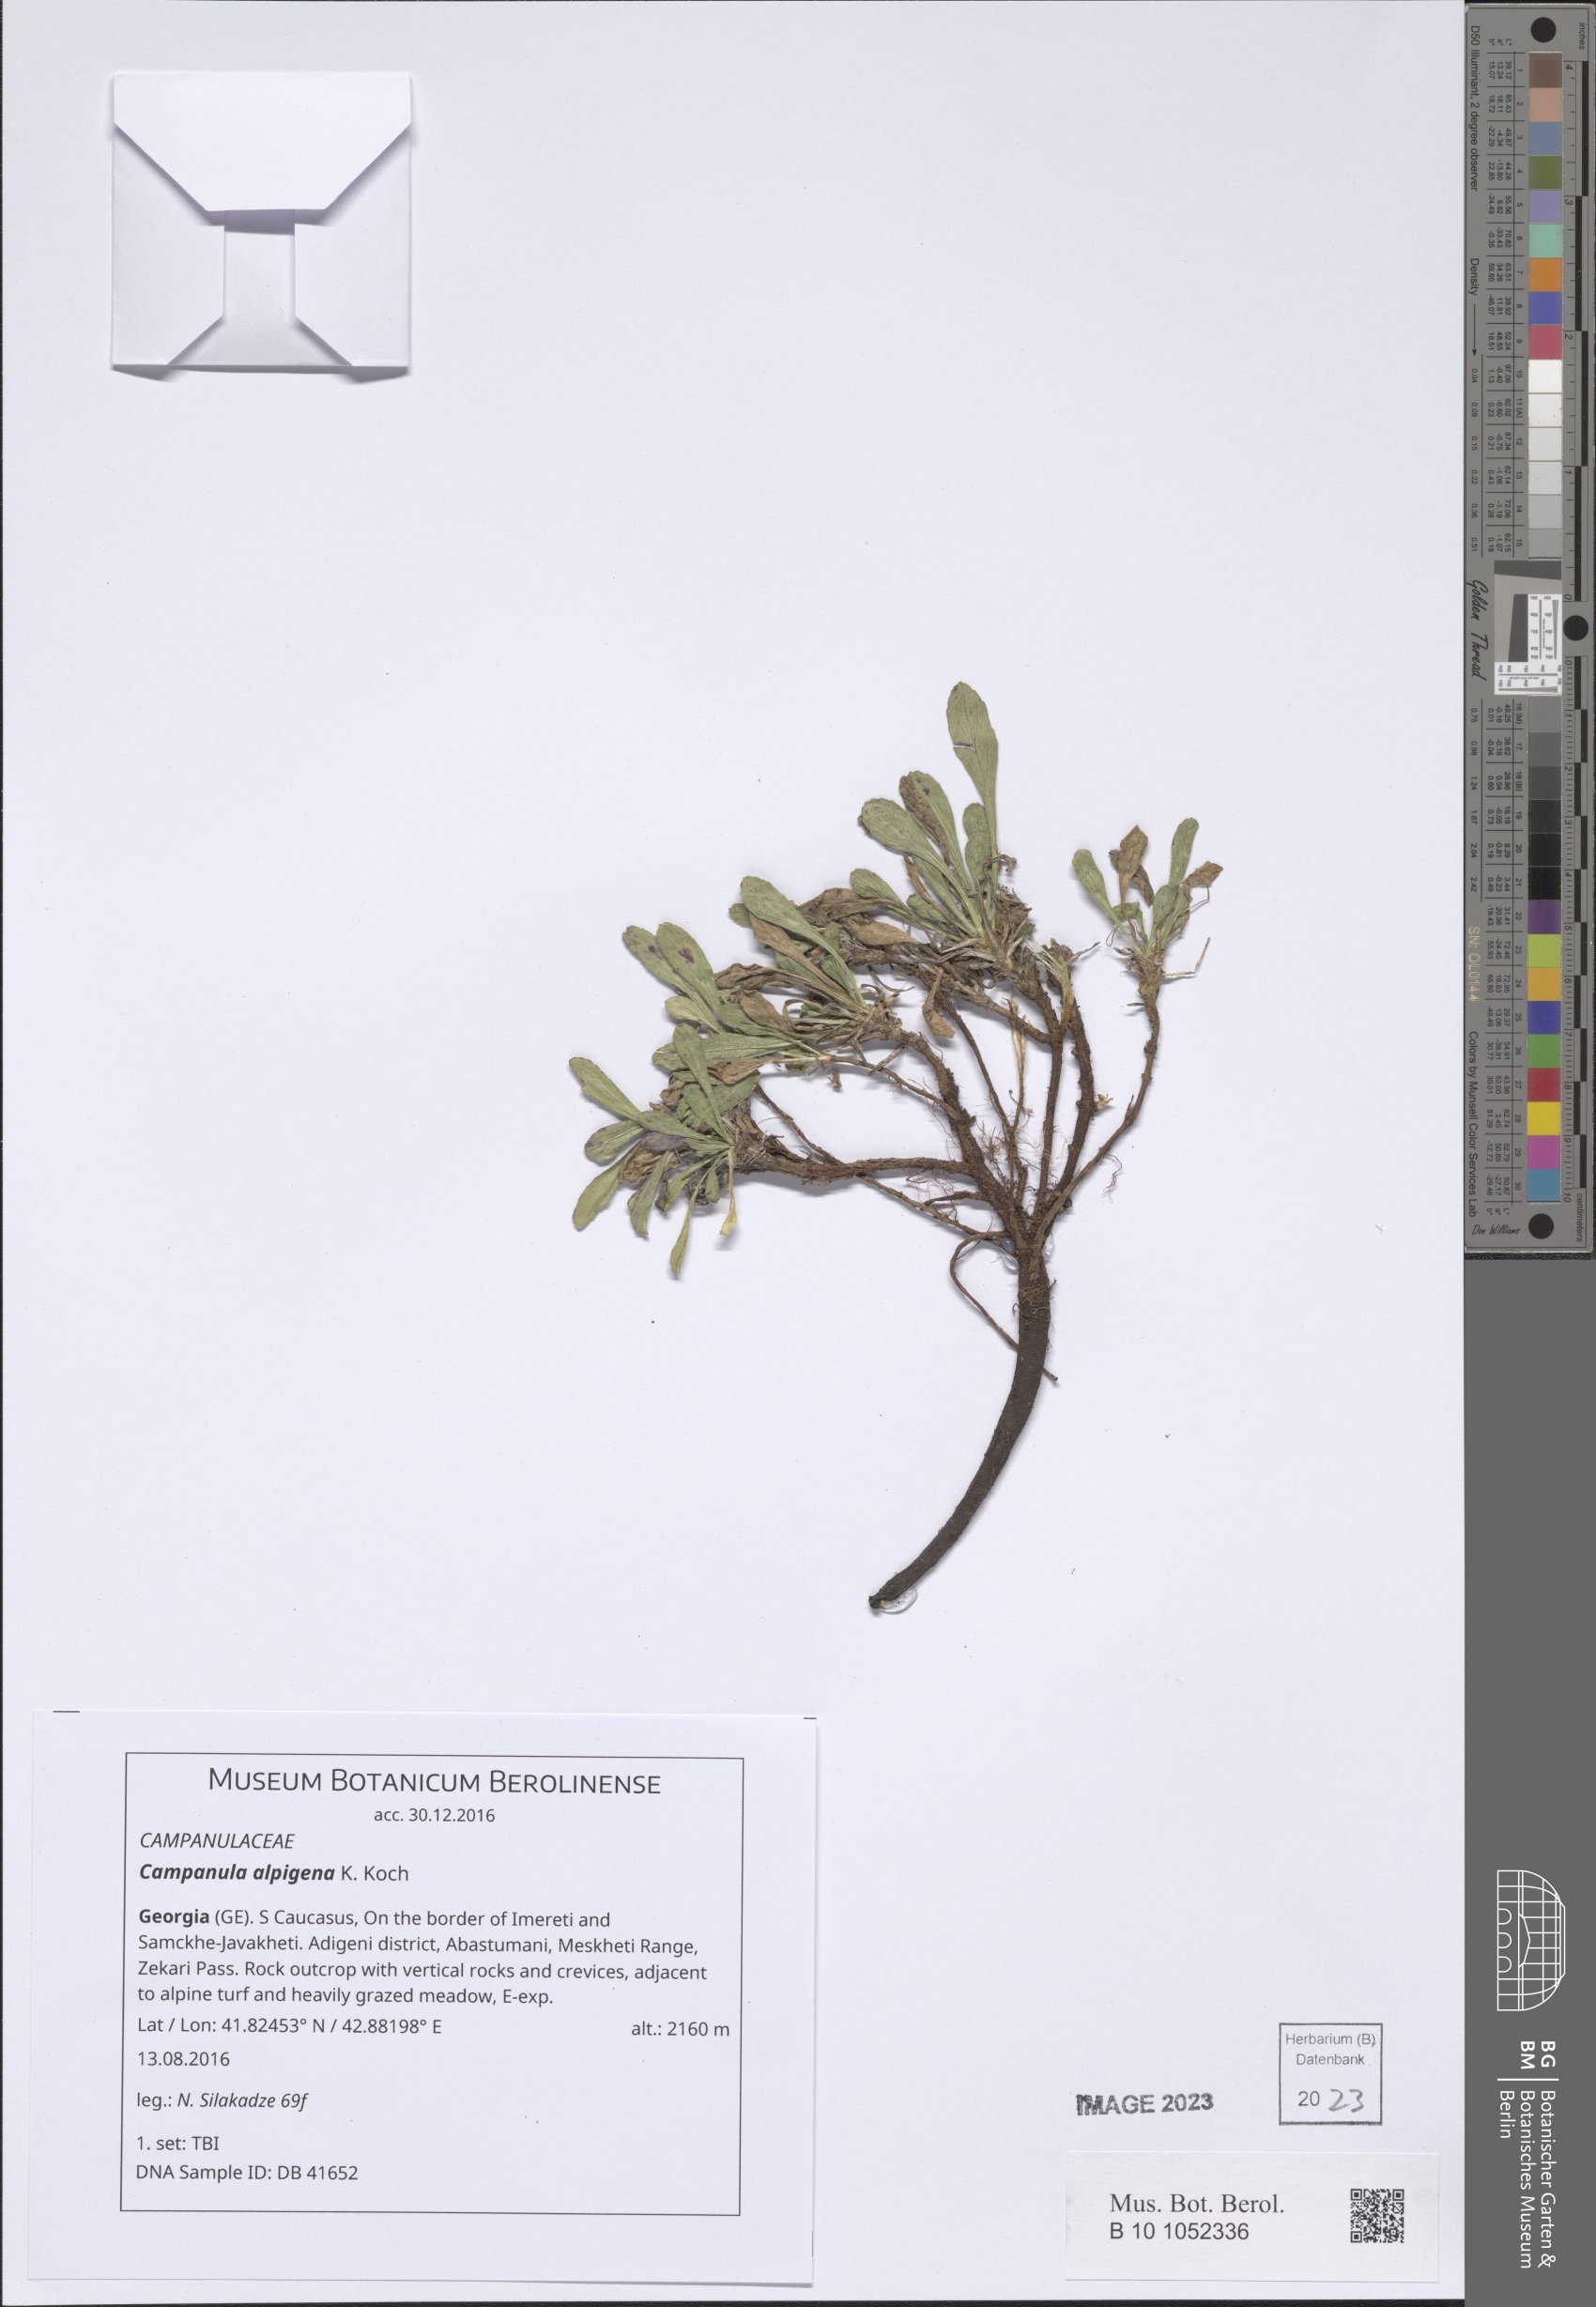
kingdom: Plantae
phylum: Tracheophyta
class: Magnoliopsida
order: Asterales
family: Campanulaceae
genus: Campanula
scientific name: Campanula saxifraga
